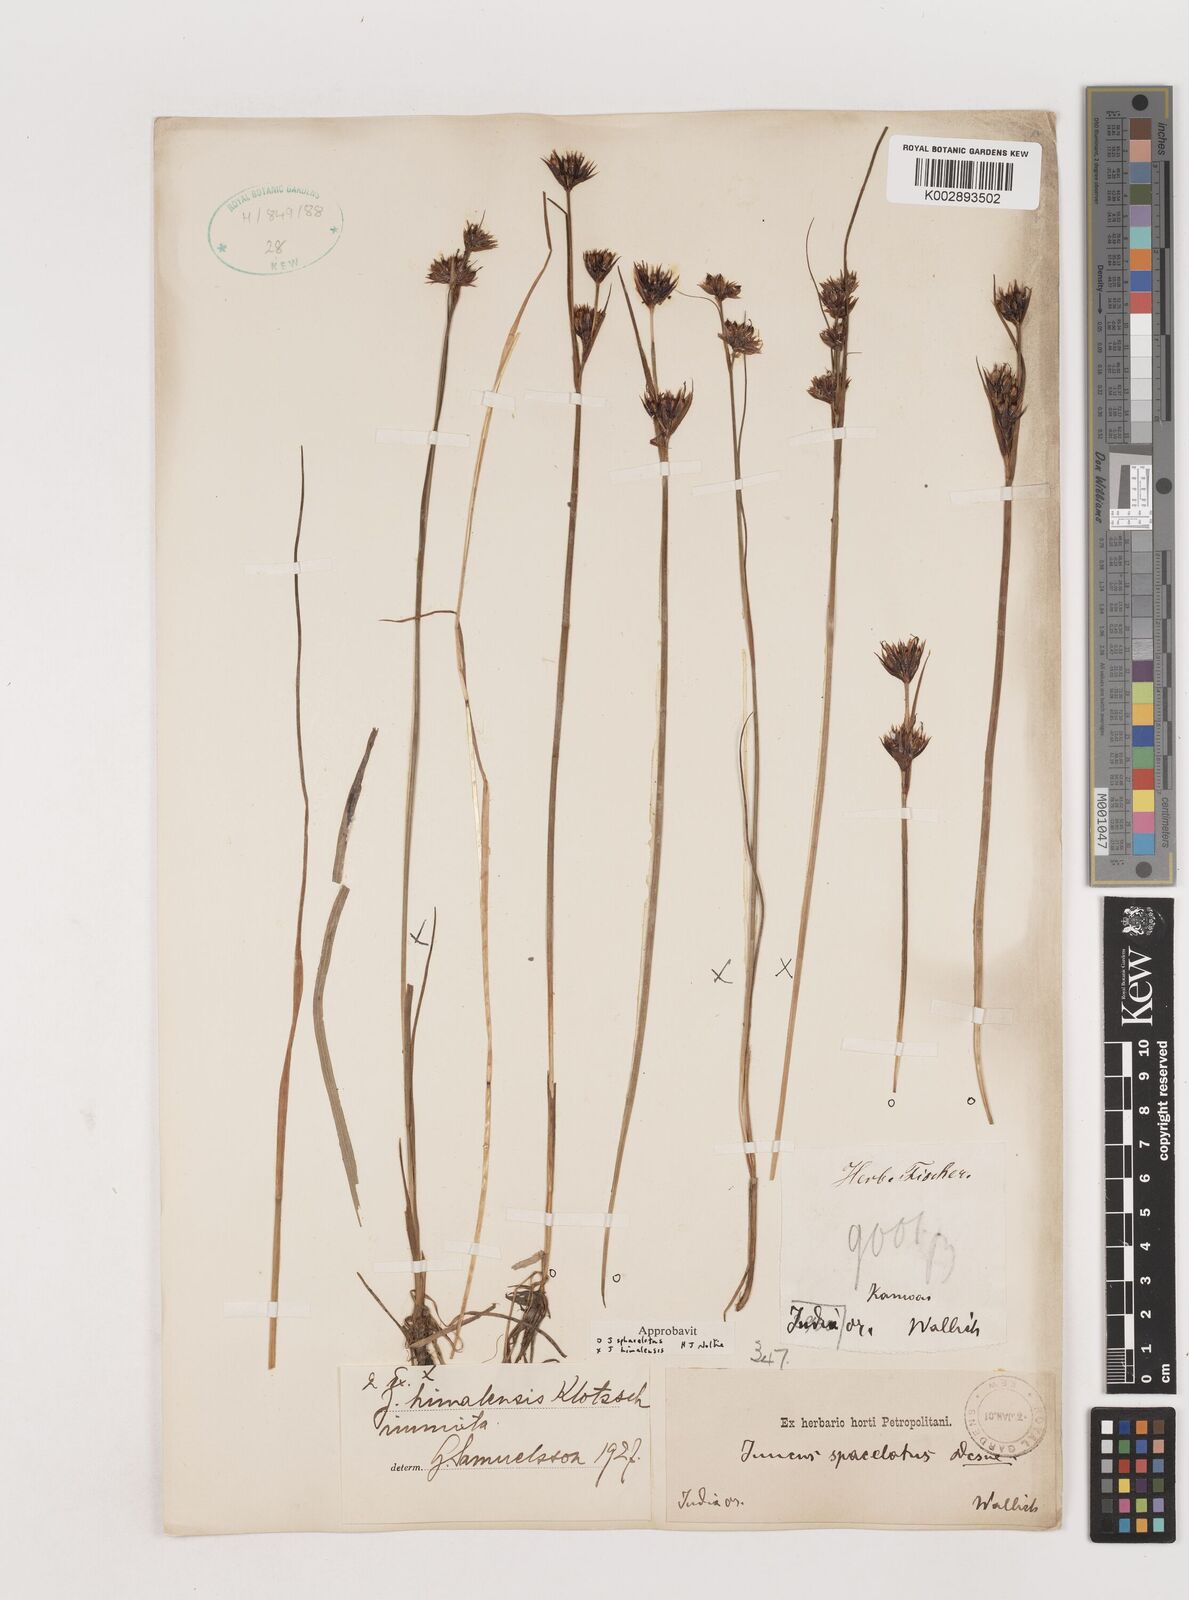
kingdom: Plantae
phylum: Tracheophyta
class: Liliopsida
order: Poales
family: Juncaceae
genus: Juncus
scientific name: Juncus sphacelatus
